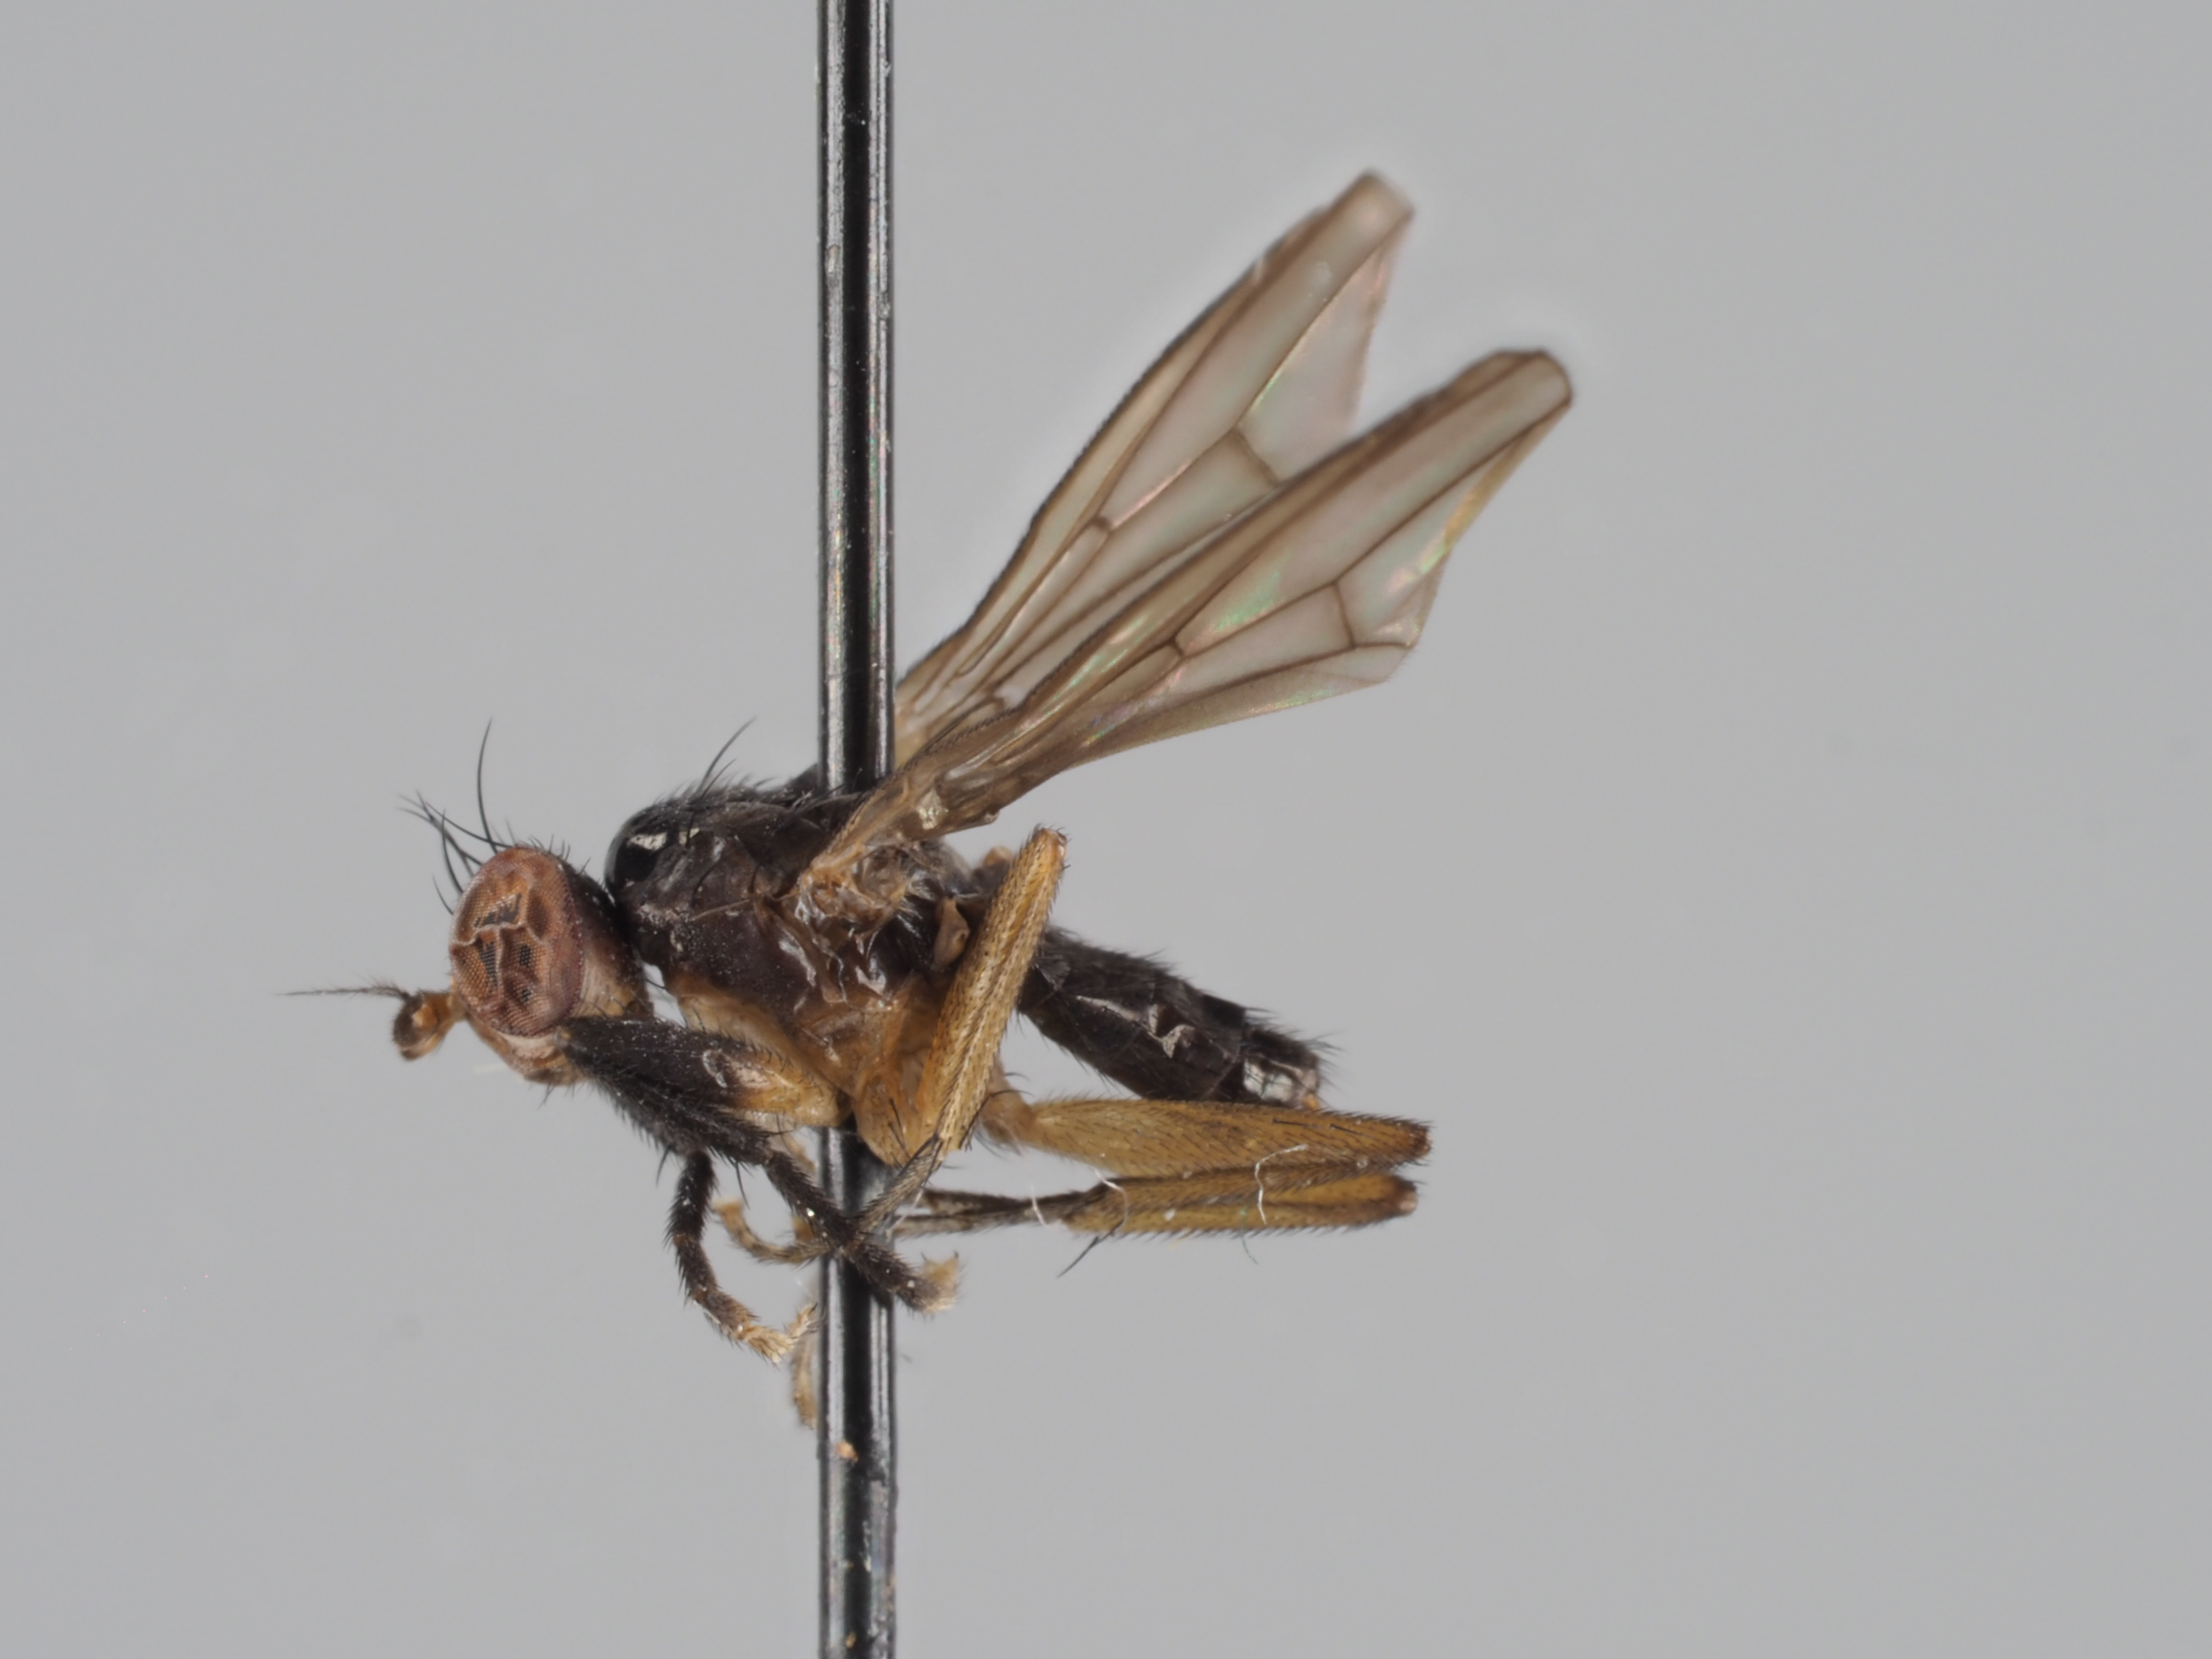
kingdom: Animalia
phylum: Arthropoda
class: Insecta
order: Diptera
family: Sciomyzidae
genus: Pteromicra
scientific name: Pteromicra leucopeza
